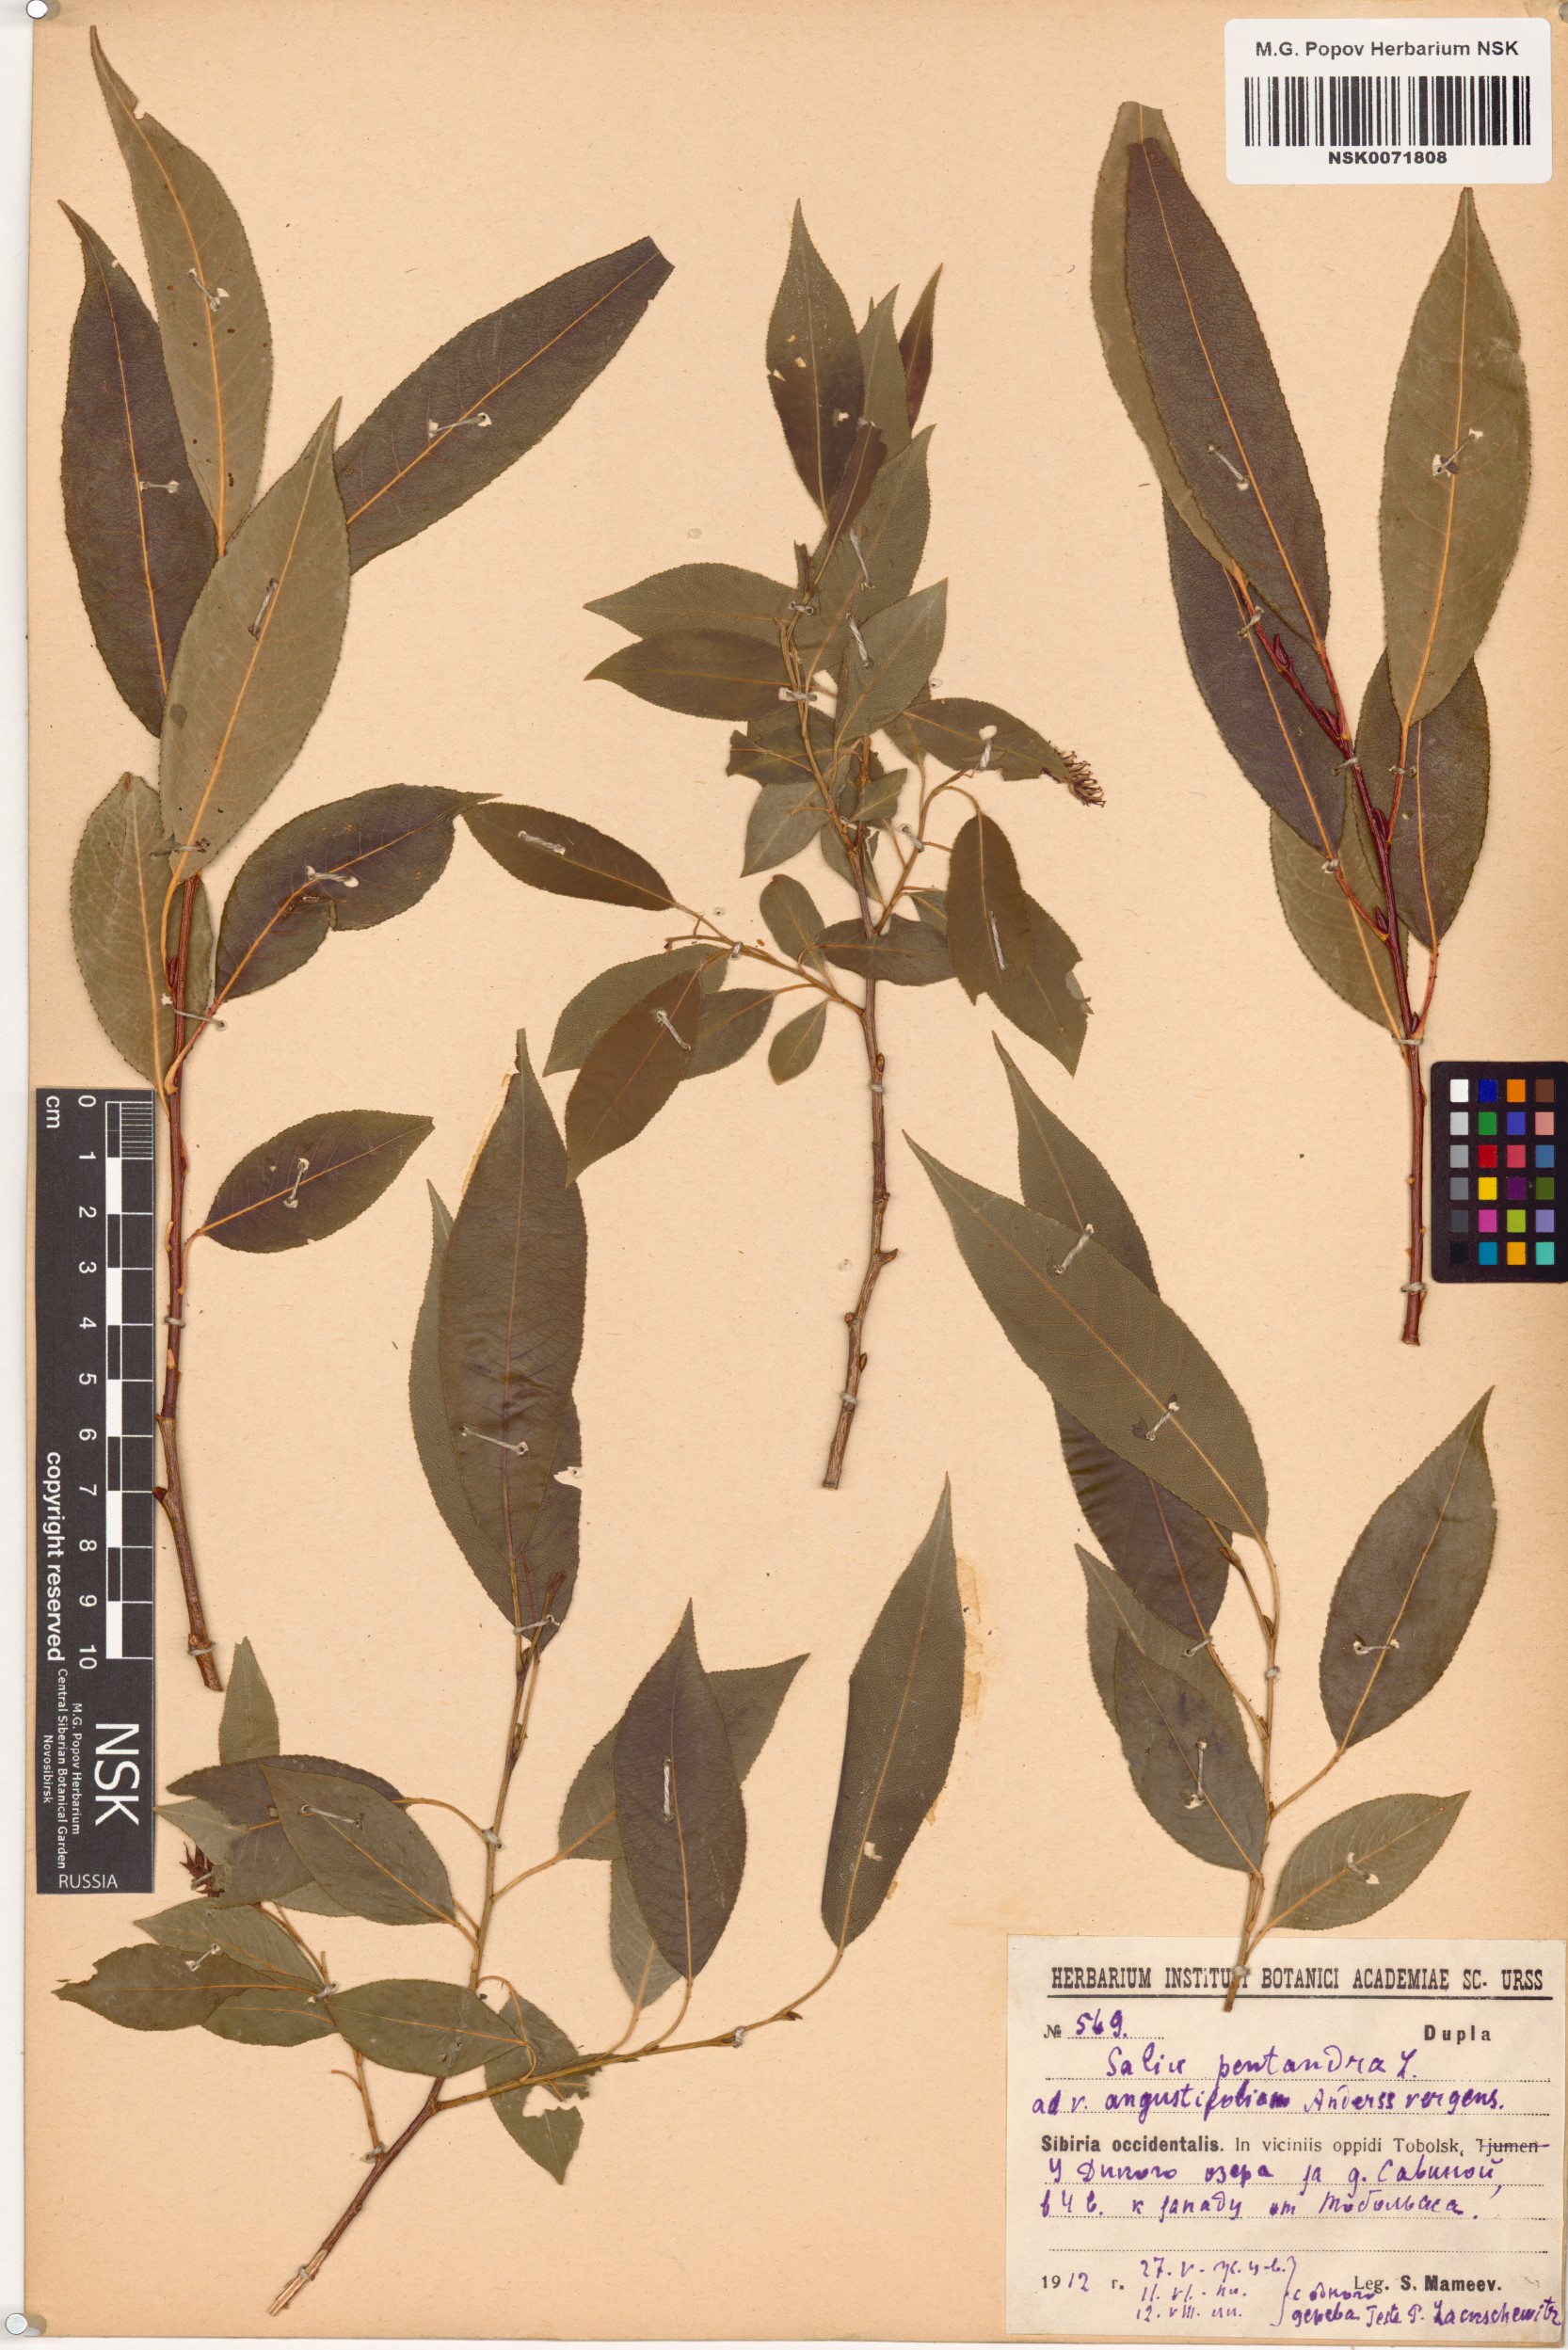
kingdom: Plantae
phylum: Tracheophyta
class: Magnoliopsida
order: Malpighiales
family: Salicaceae
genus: Salix
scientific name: Salix pentandra
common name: Bay willow
